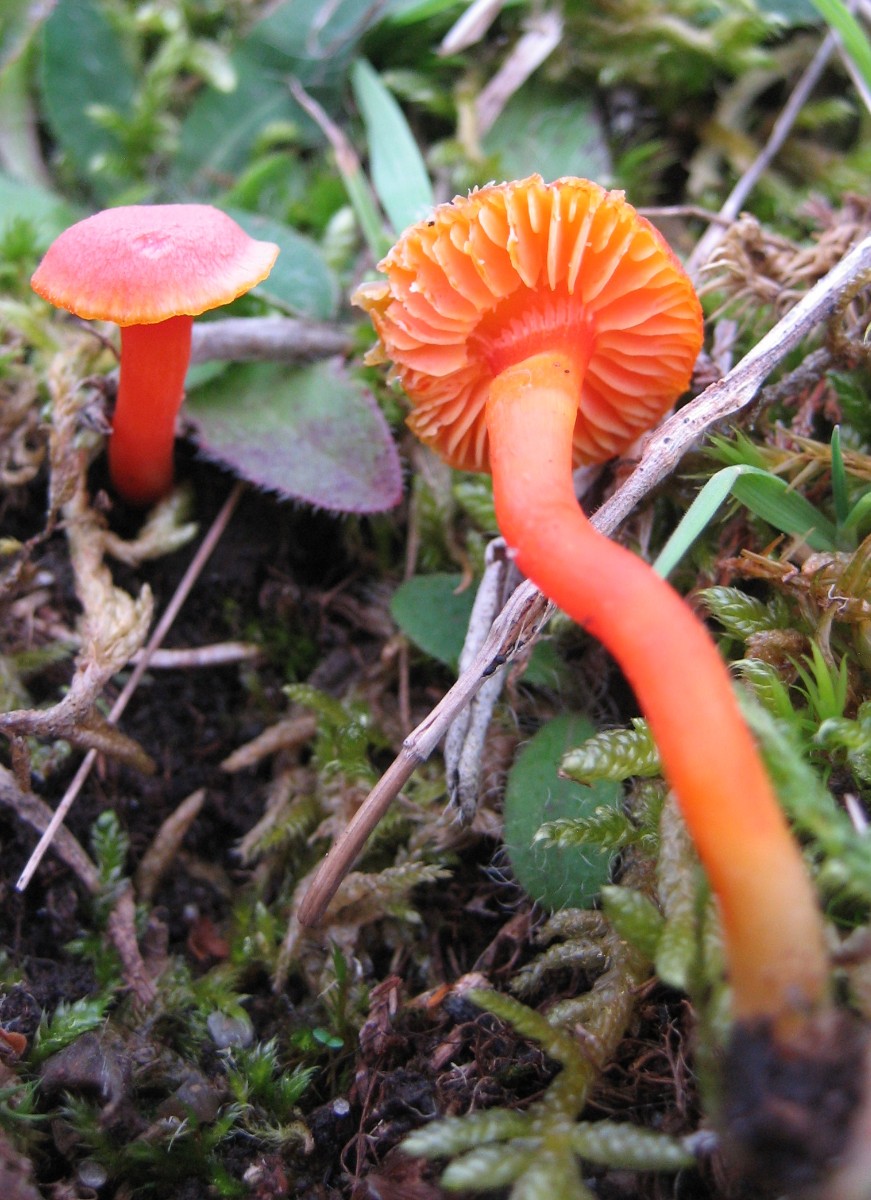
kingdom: Fungi
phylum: Basidiomycota
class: Agaricomycetes
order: Agaricales
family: Hygrophoraceae
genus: Hygrocybe
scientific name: Hygrocybe miniata
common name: mønje-vokshat
